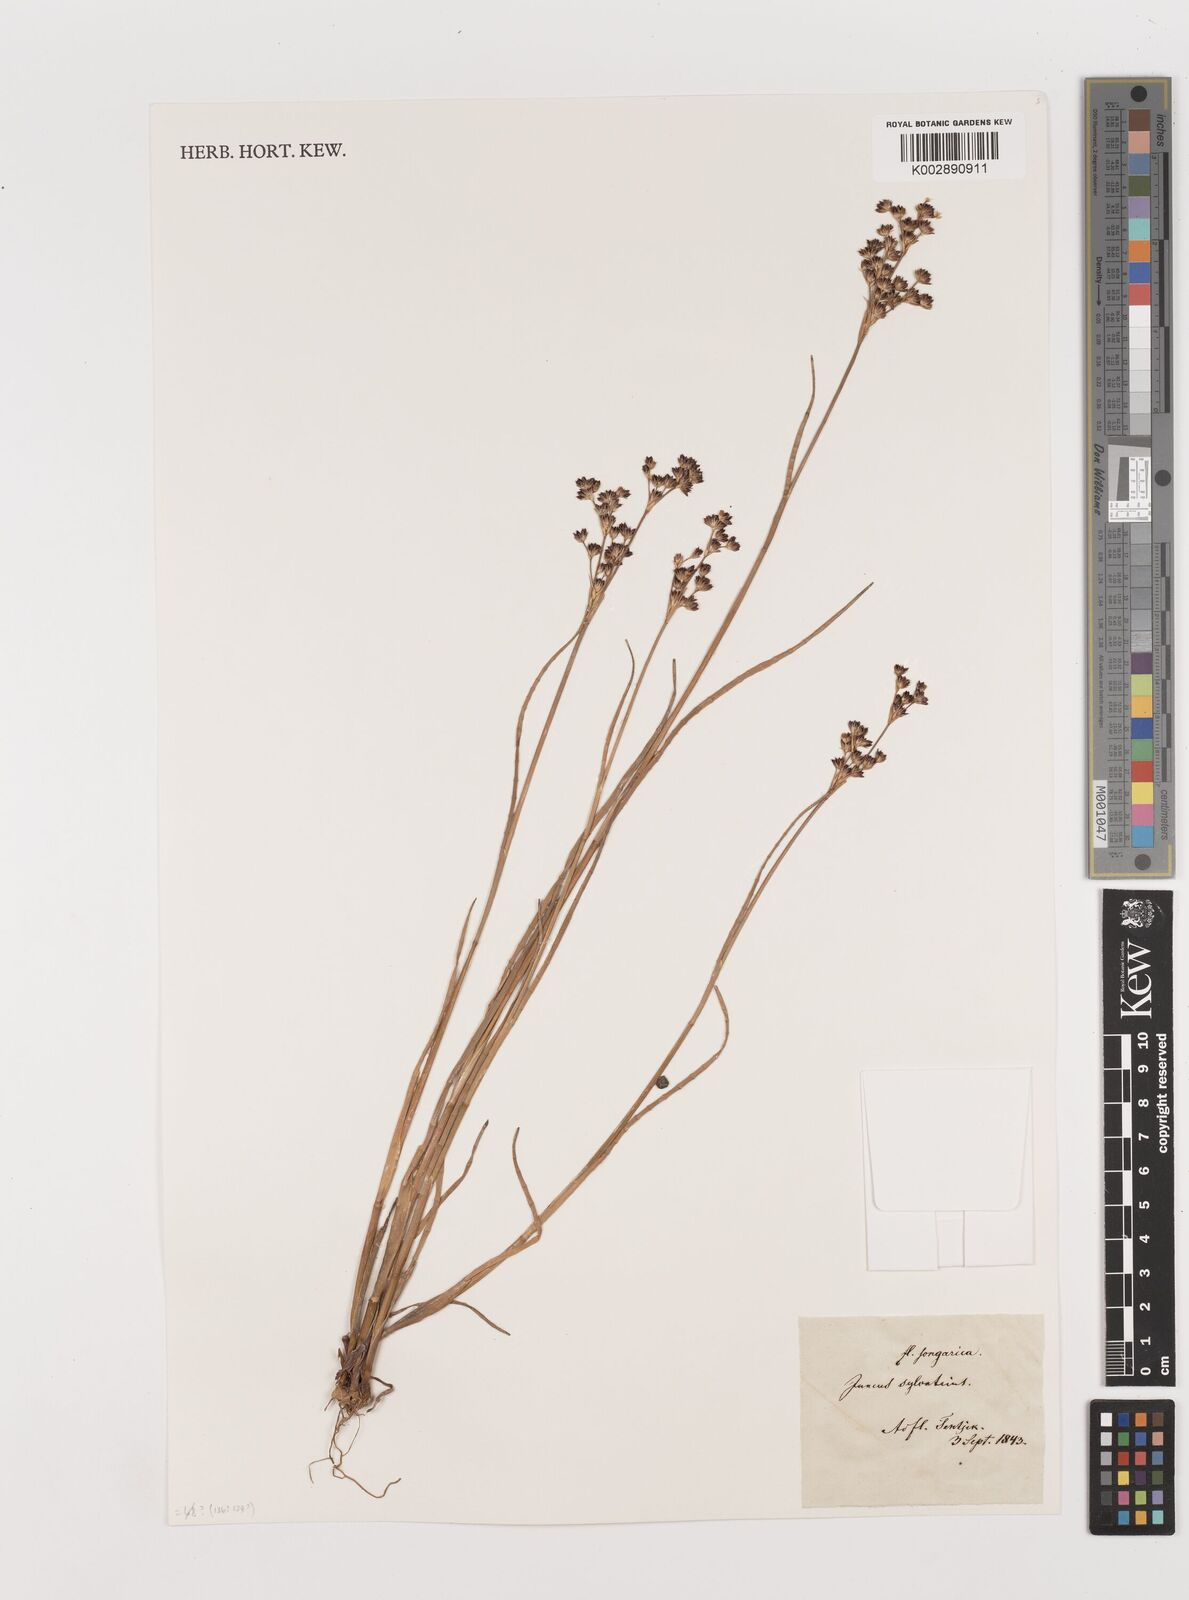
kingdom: Plantae
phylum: Tracheophyta
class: Liliopsida
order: Poales
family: Juncaceae
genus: Juncus
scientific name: Juncus
